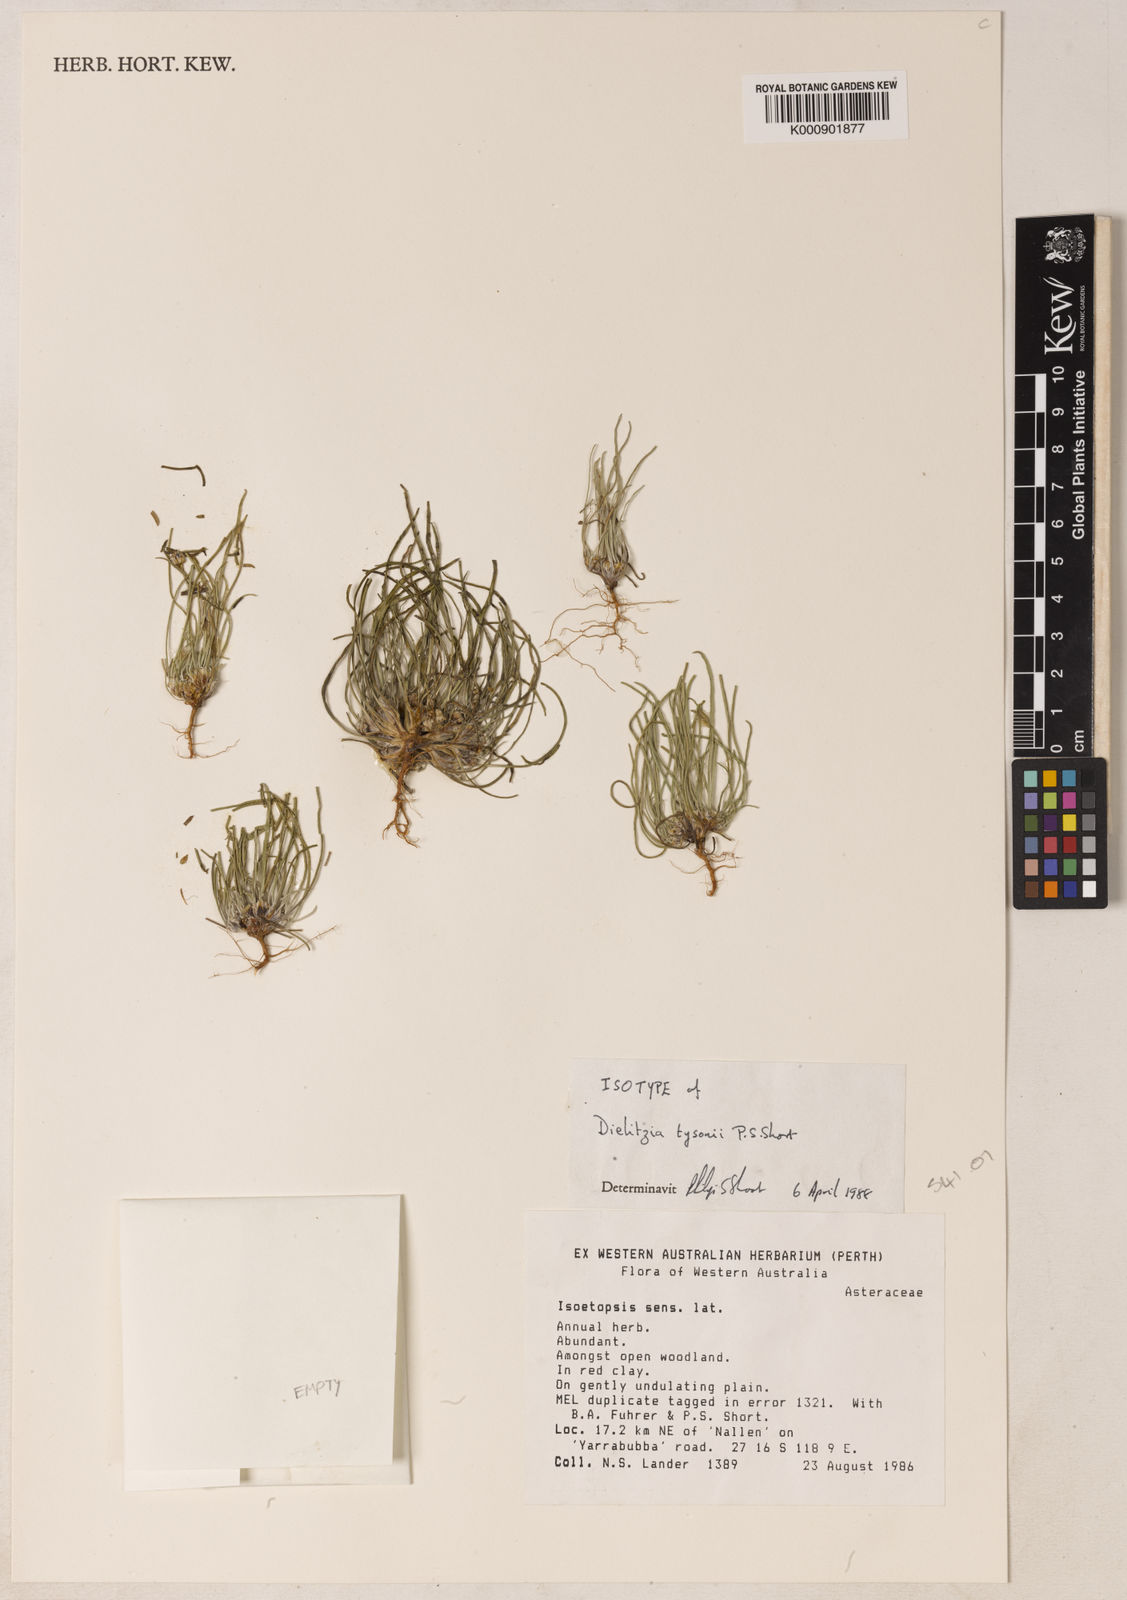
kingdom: Plantae
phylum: Tracheophyta
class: Magnoliopsida
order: Asterales
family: Asteraceae
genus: Dielitzia
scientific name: Dielitzia tysonii
